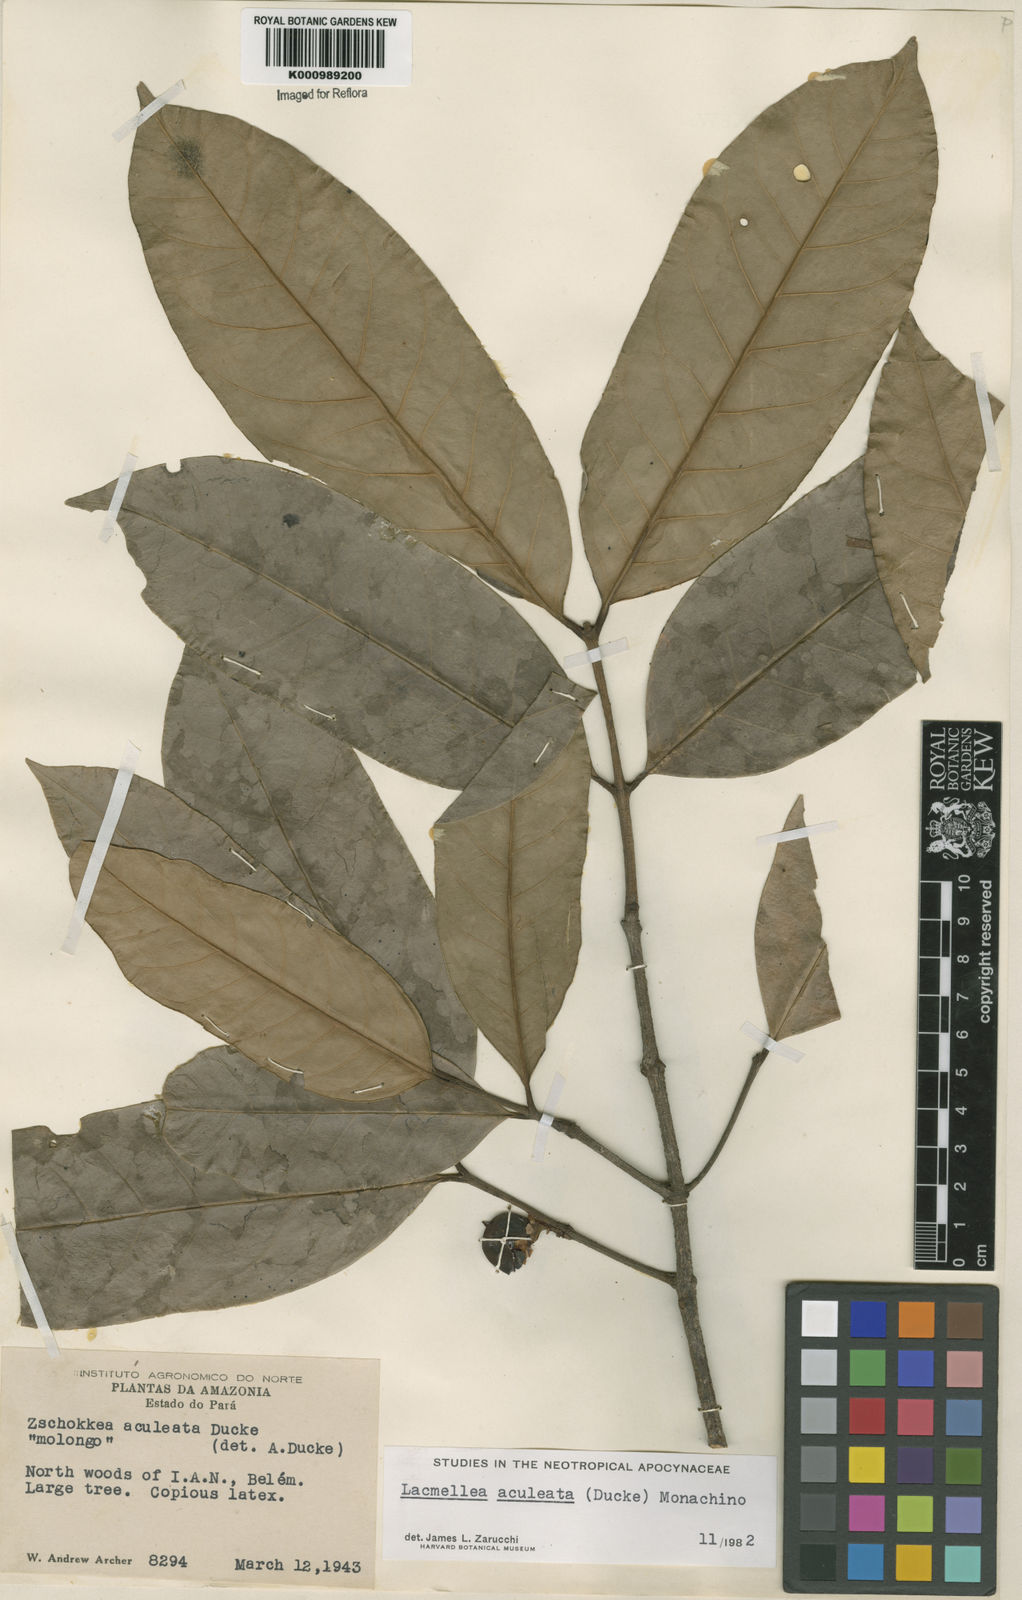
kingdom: Plantae
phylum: Tracheophyta
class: Magnoliopsida
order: Gentianales
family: Apocynaceae
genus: Lacmellea
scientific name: Lacmellea aculeata
